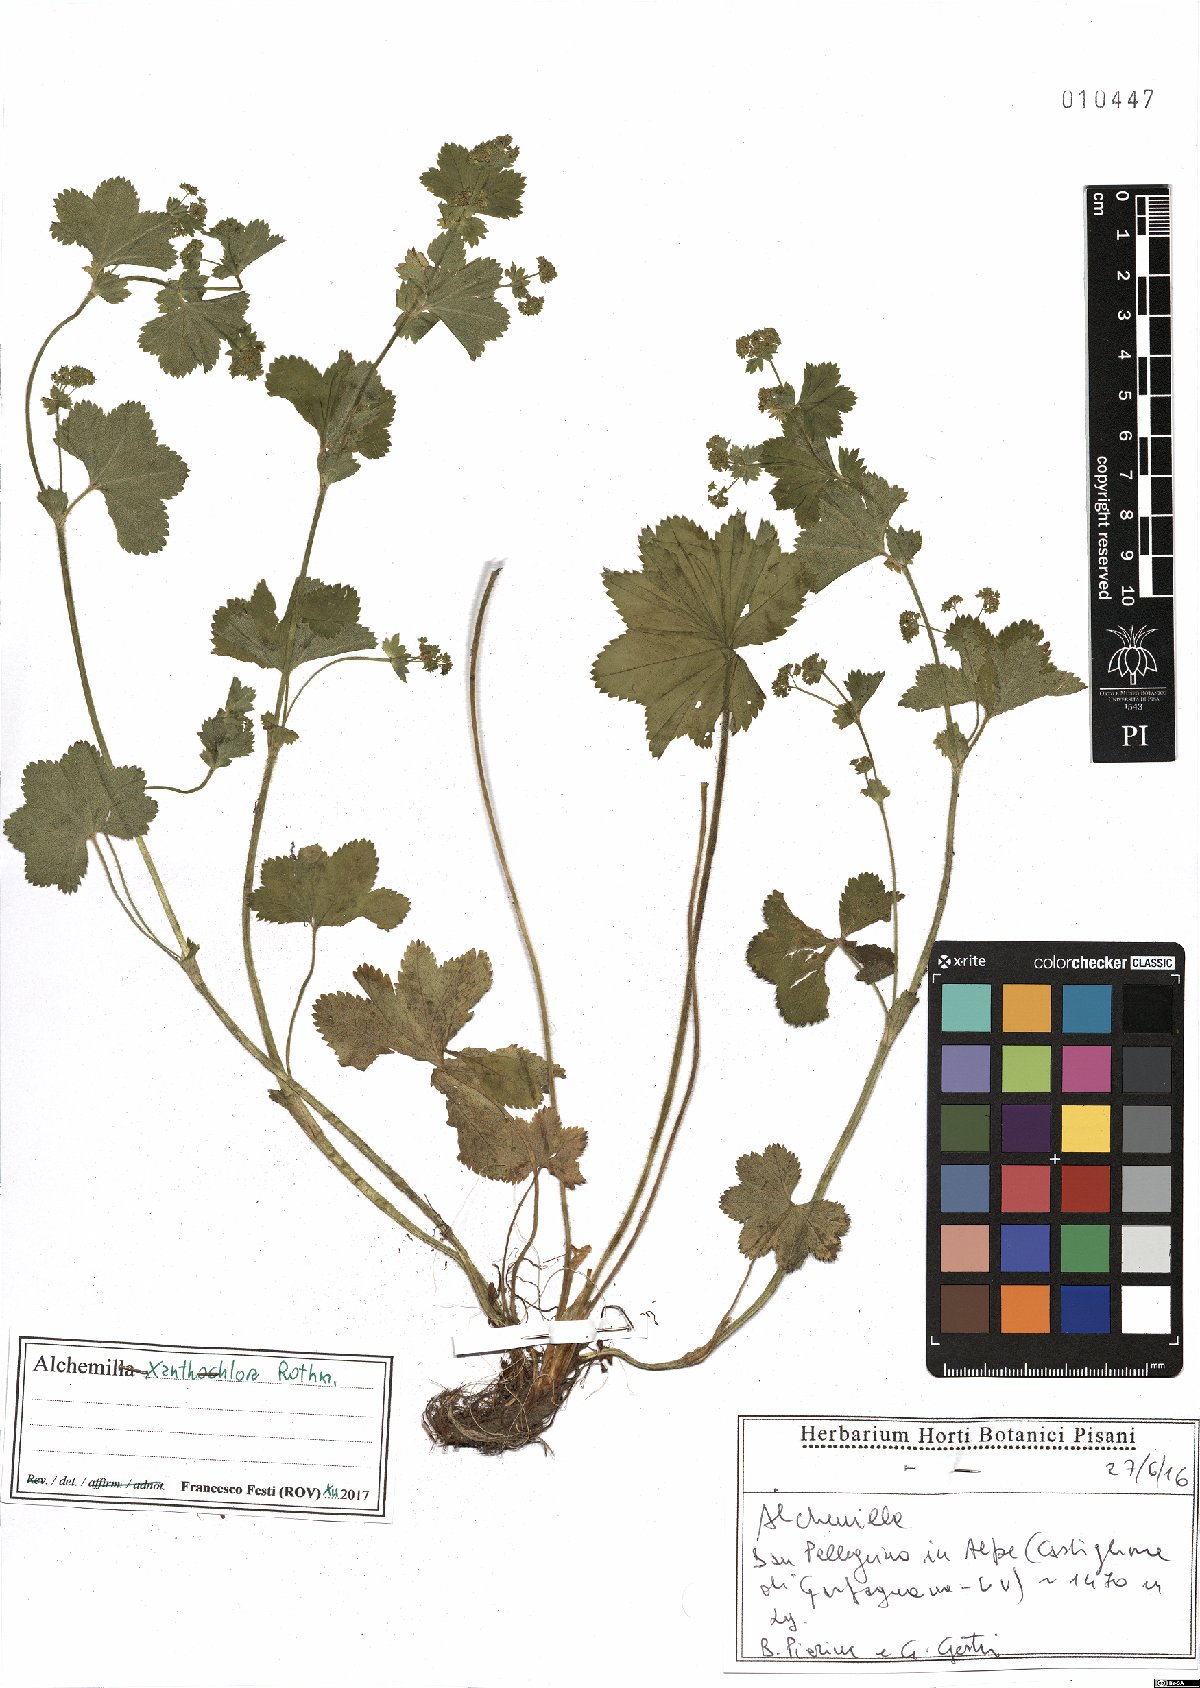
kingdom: Plantae
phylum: Tracheophyta
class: Magnoliopsida
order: Rosales
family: Rosaceae
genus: Alchemilla
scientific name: Alchemilla xanthochlora
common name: Intermediate lady's-mantle
